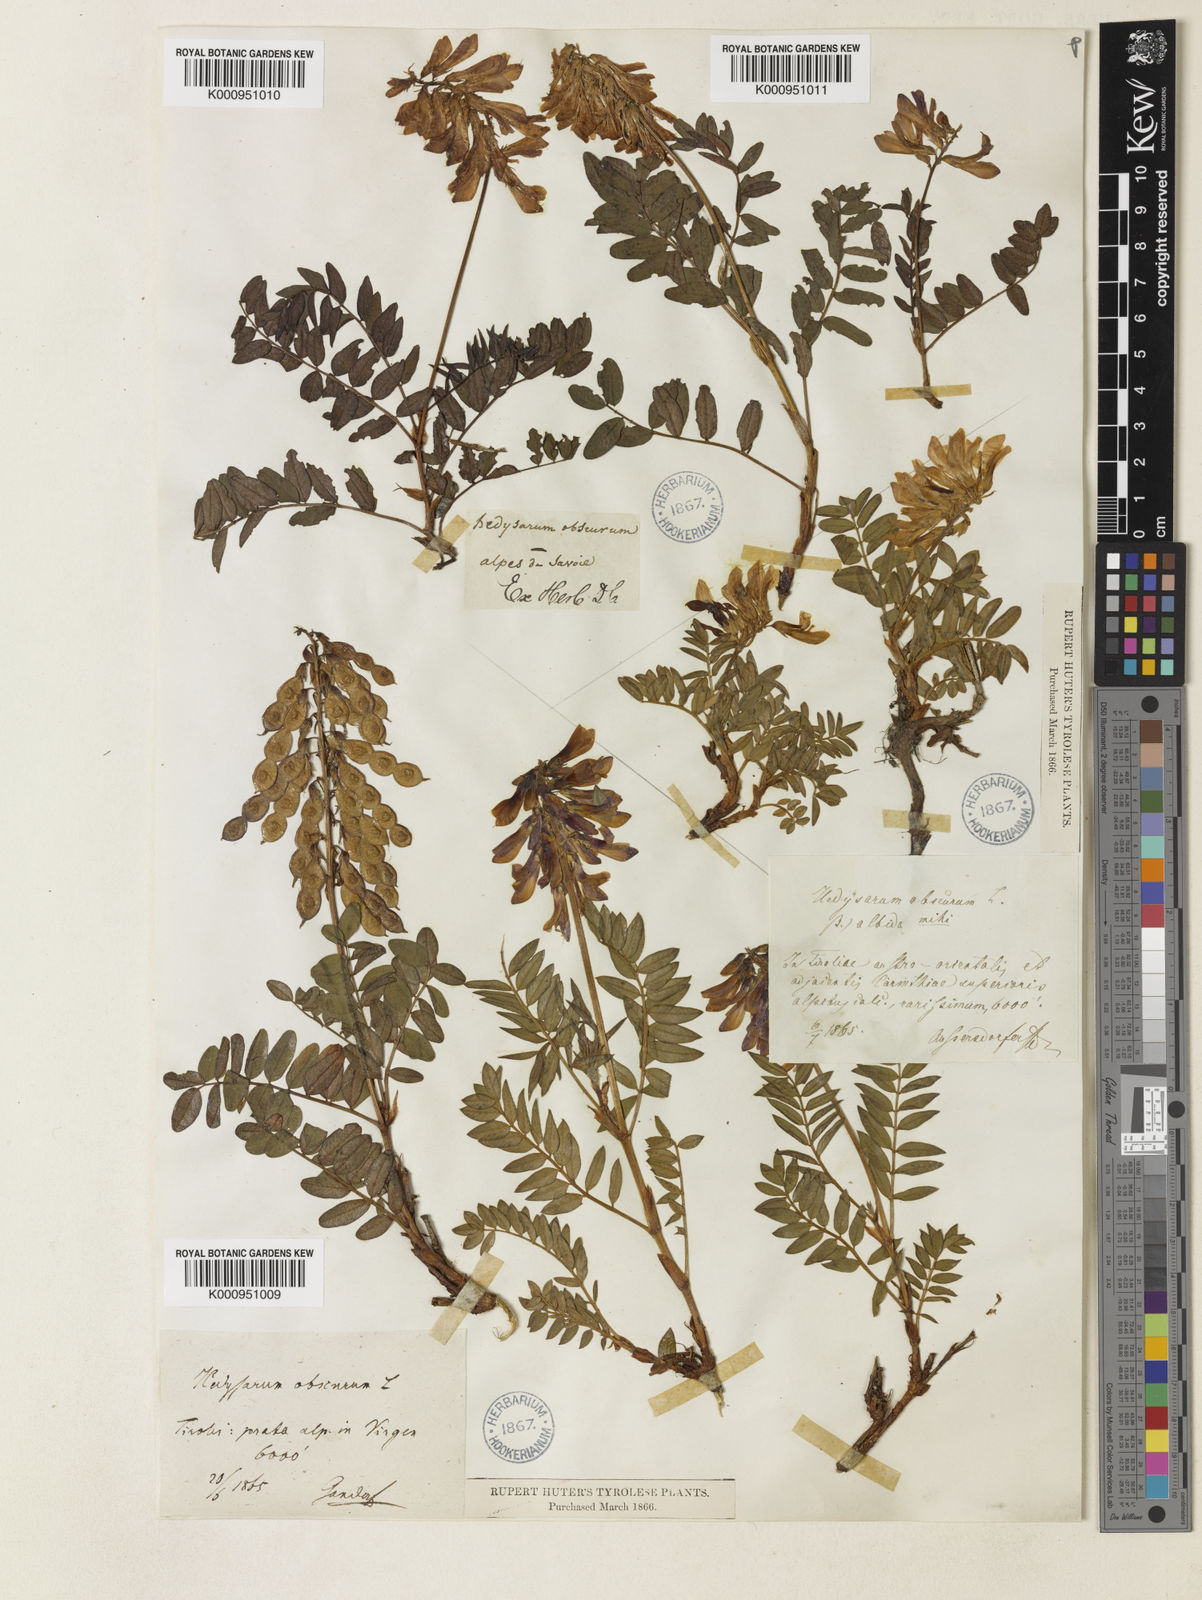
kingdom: Plantae
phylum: Tracheophyta
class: Magnoliopsida
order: Fabales
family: Fabaceae
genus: Hedysarum
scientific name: Hedysarum hedysaroides
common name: Alpine french-honeysuckle
